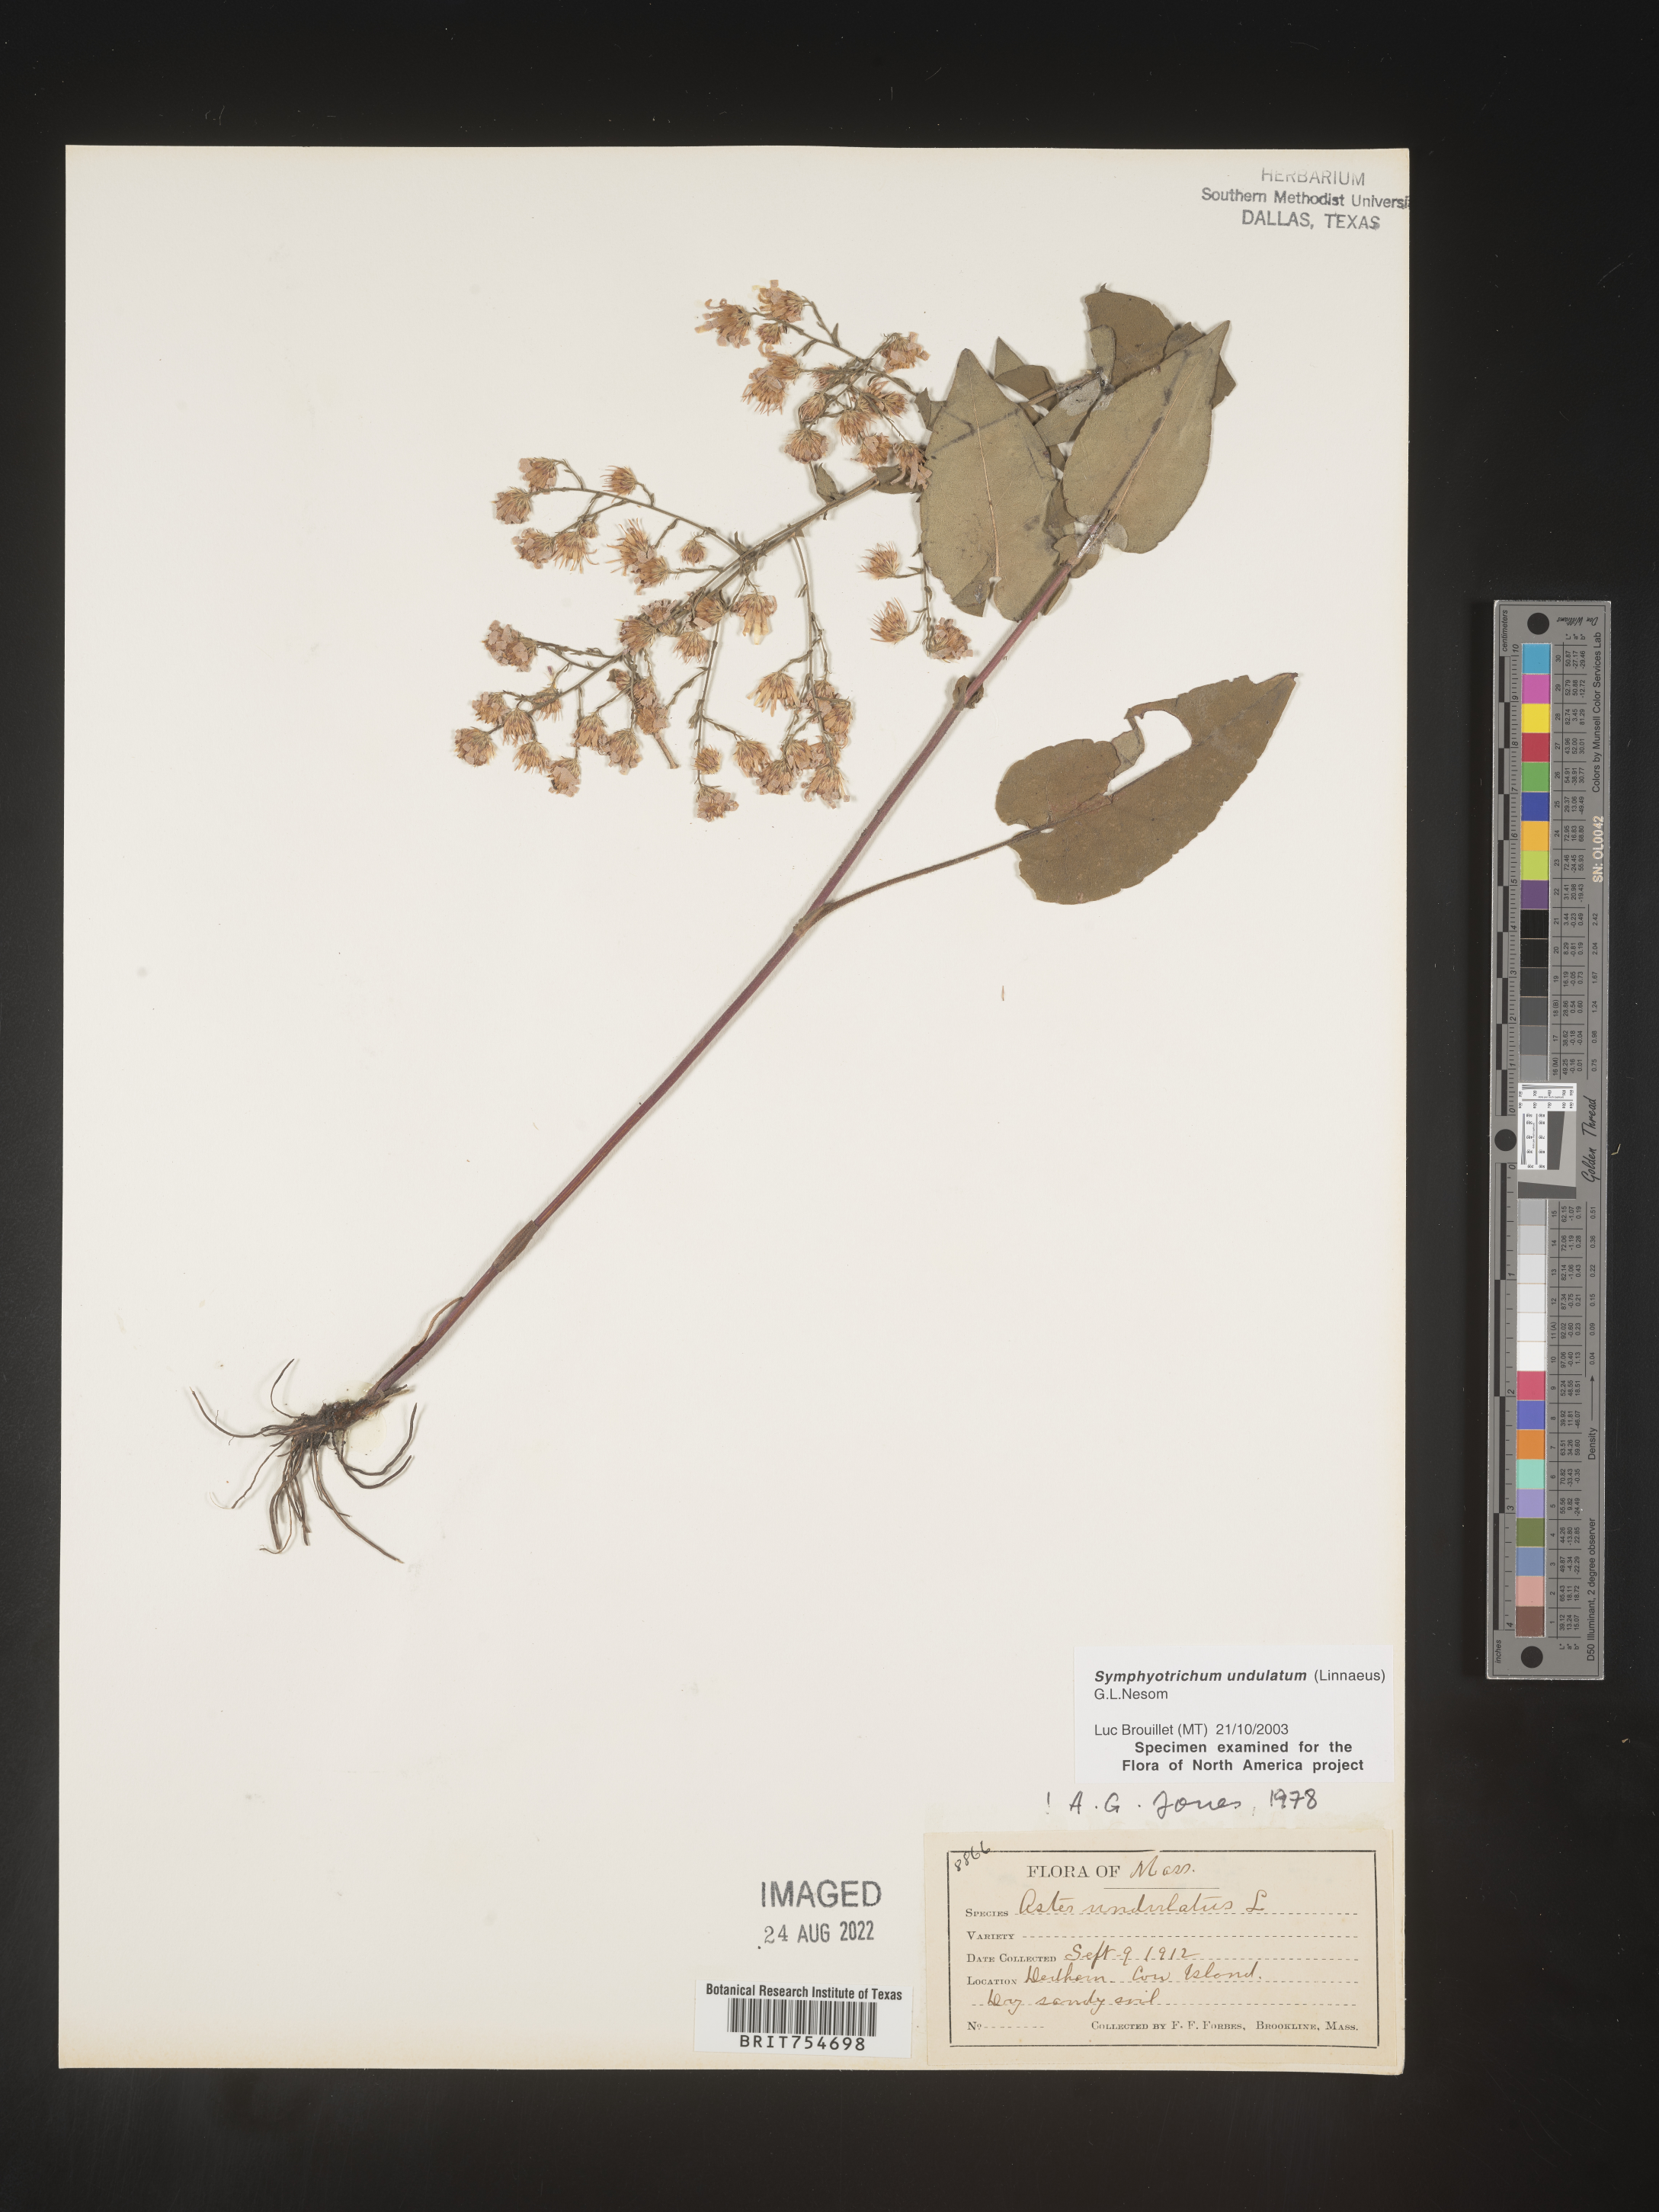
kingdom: Plantae
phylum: Tracheophyta
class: Magnoliopsida
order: Asterales
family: Asteraceae
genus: Symphyotrichum
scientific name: Symphyotrichum undulatum
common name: Clasping heart-leaf aster
